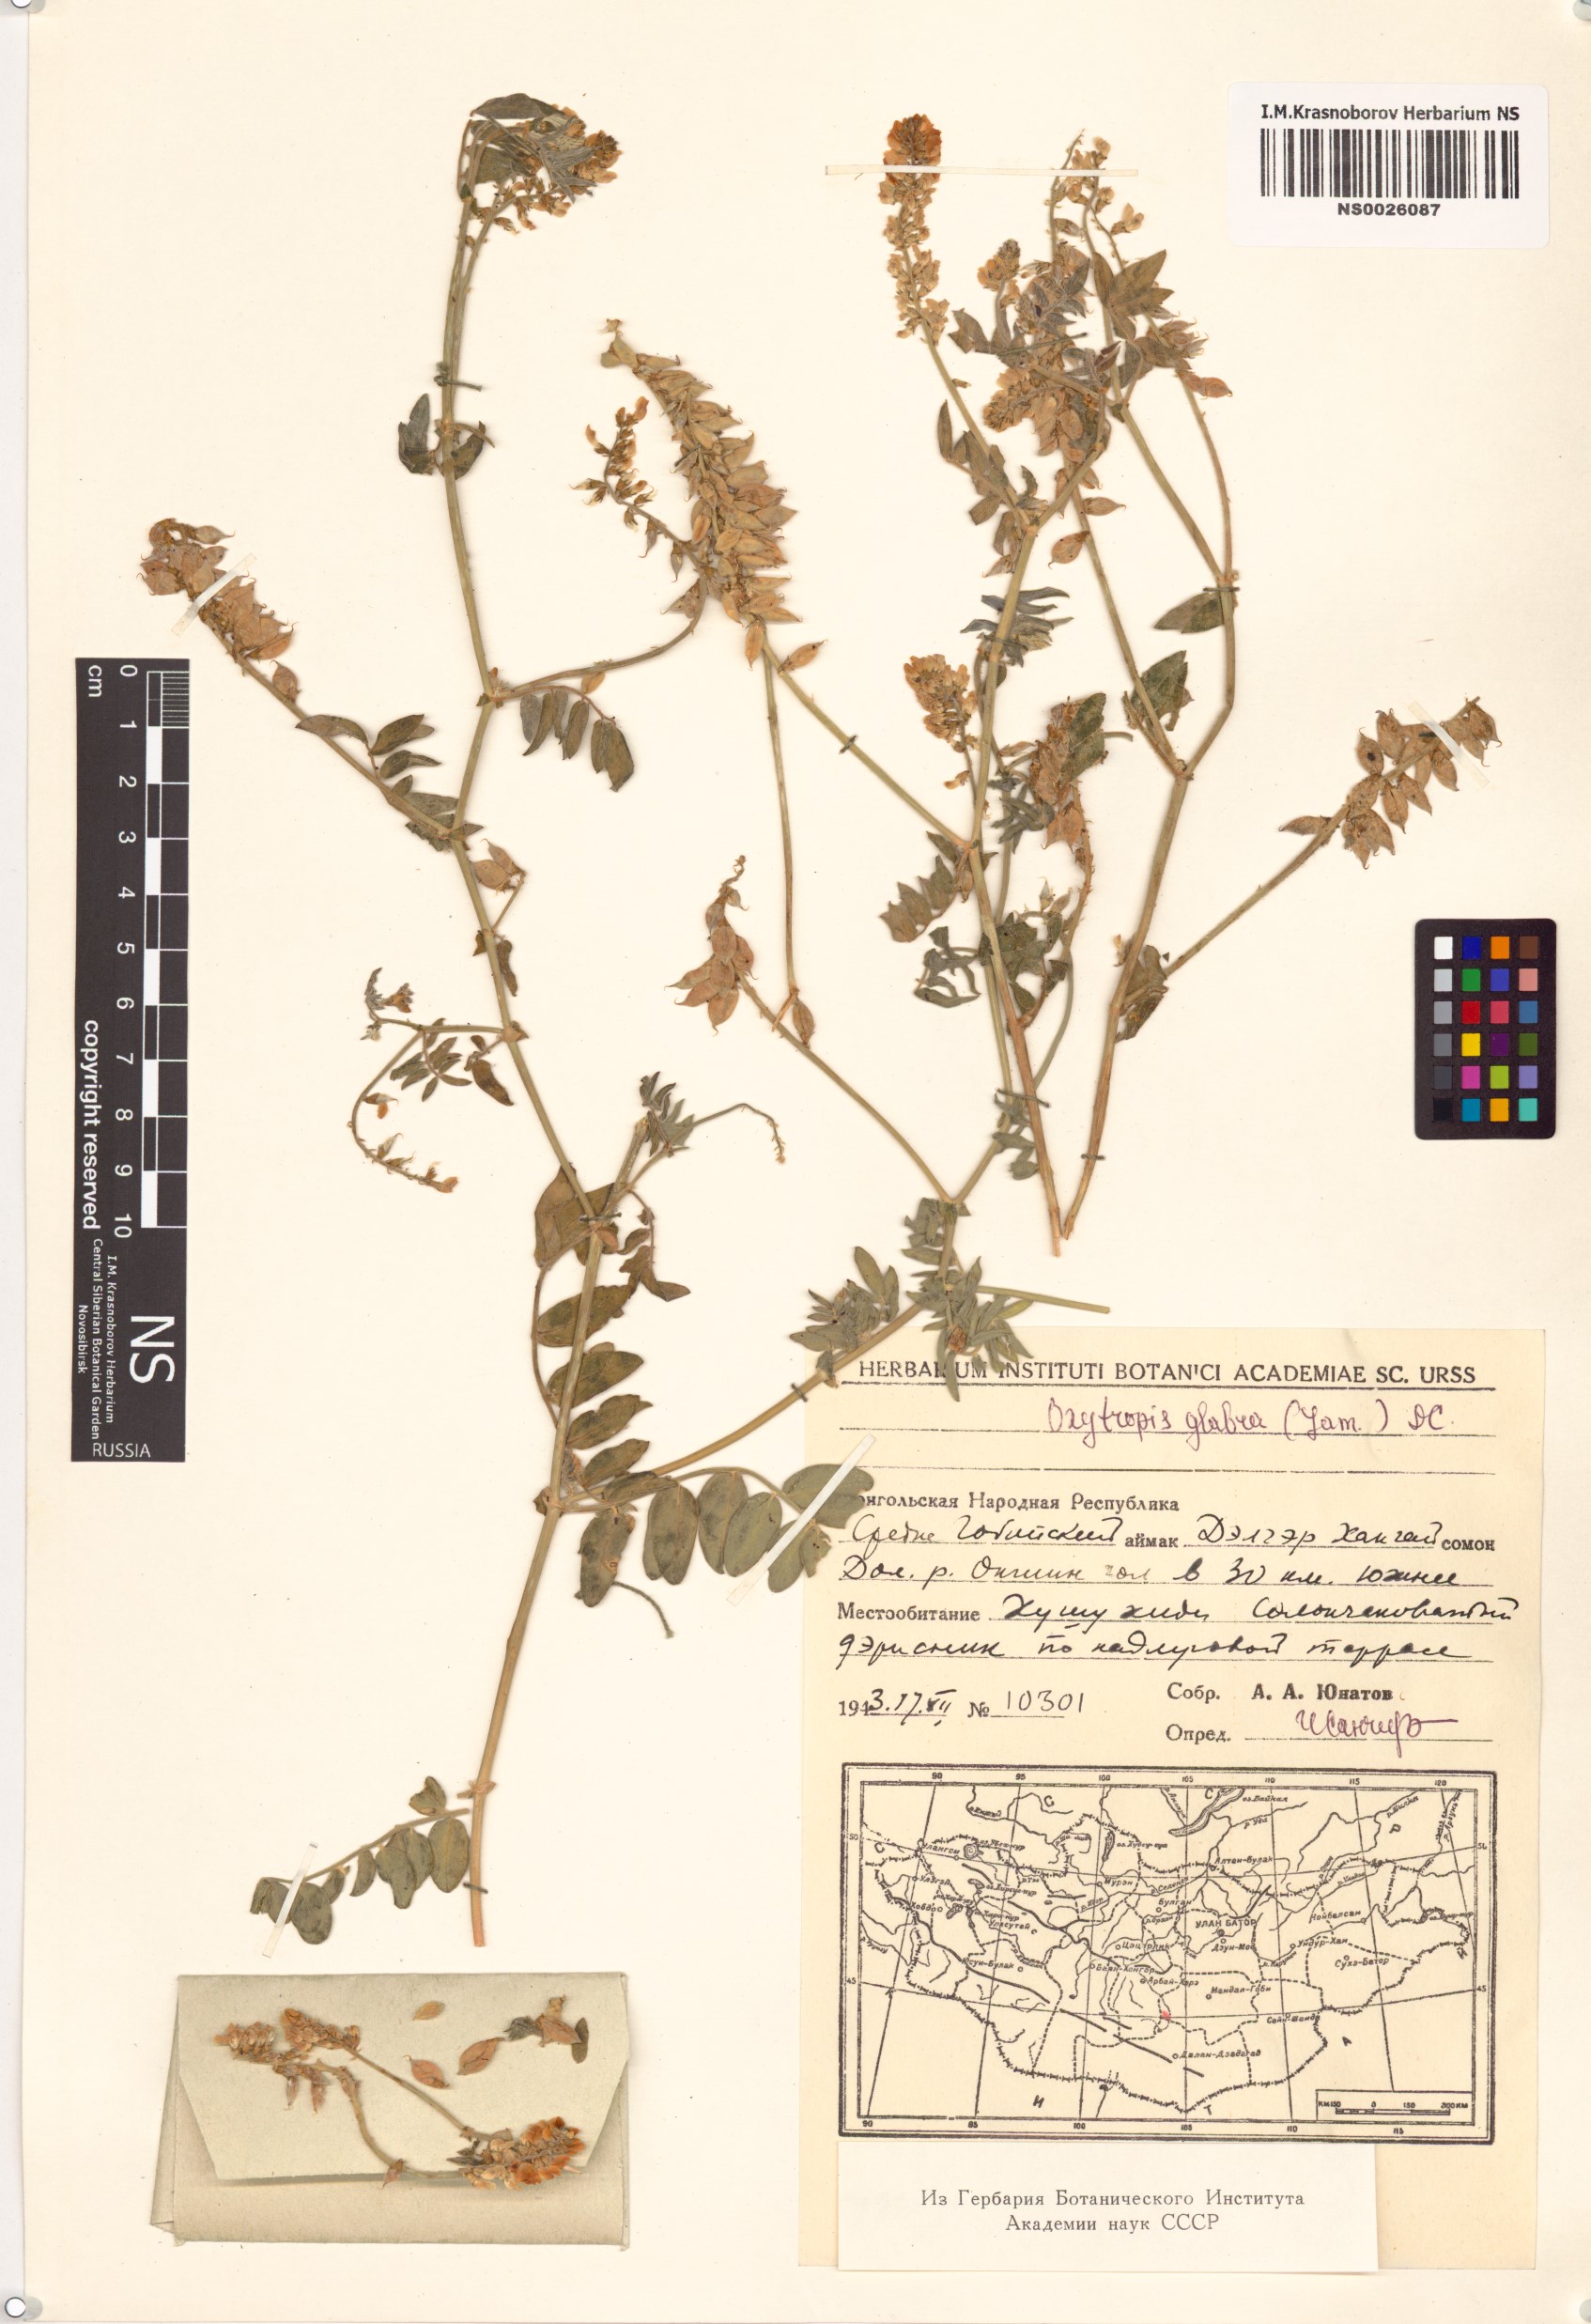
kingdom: Plantae
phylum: Tracheophyta
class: Magnoliopsida
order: Fabales
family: Fabaceae
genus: Oxytropis
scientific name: Oxytropis glabra
